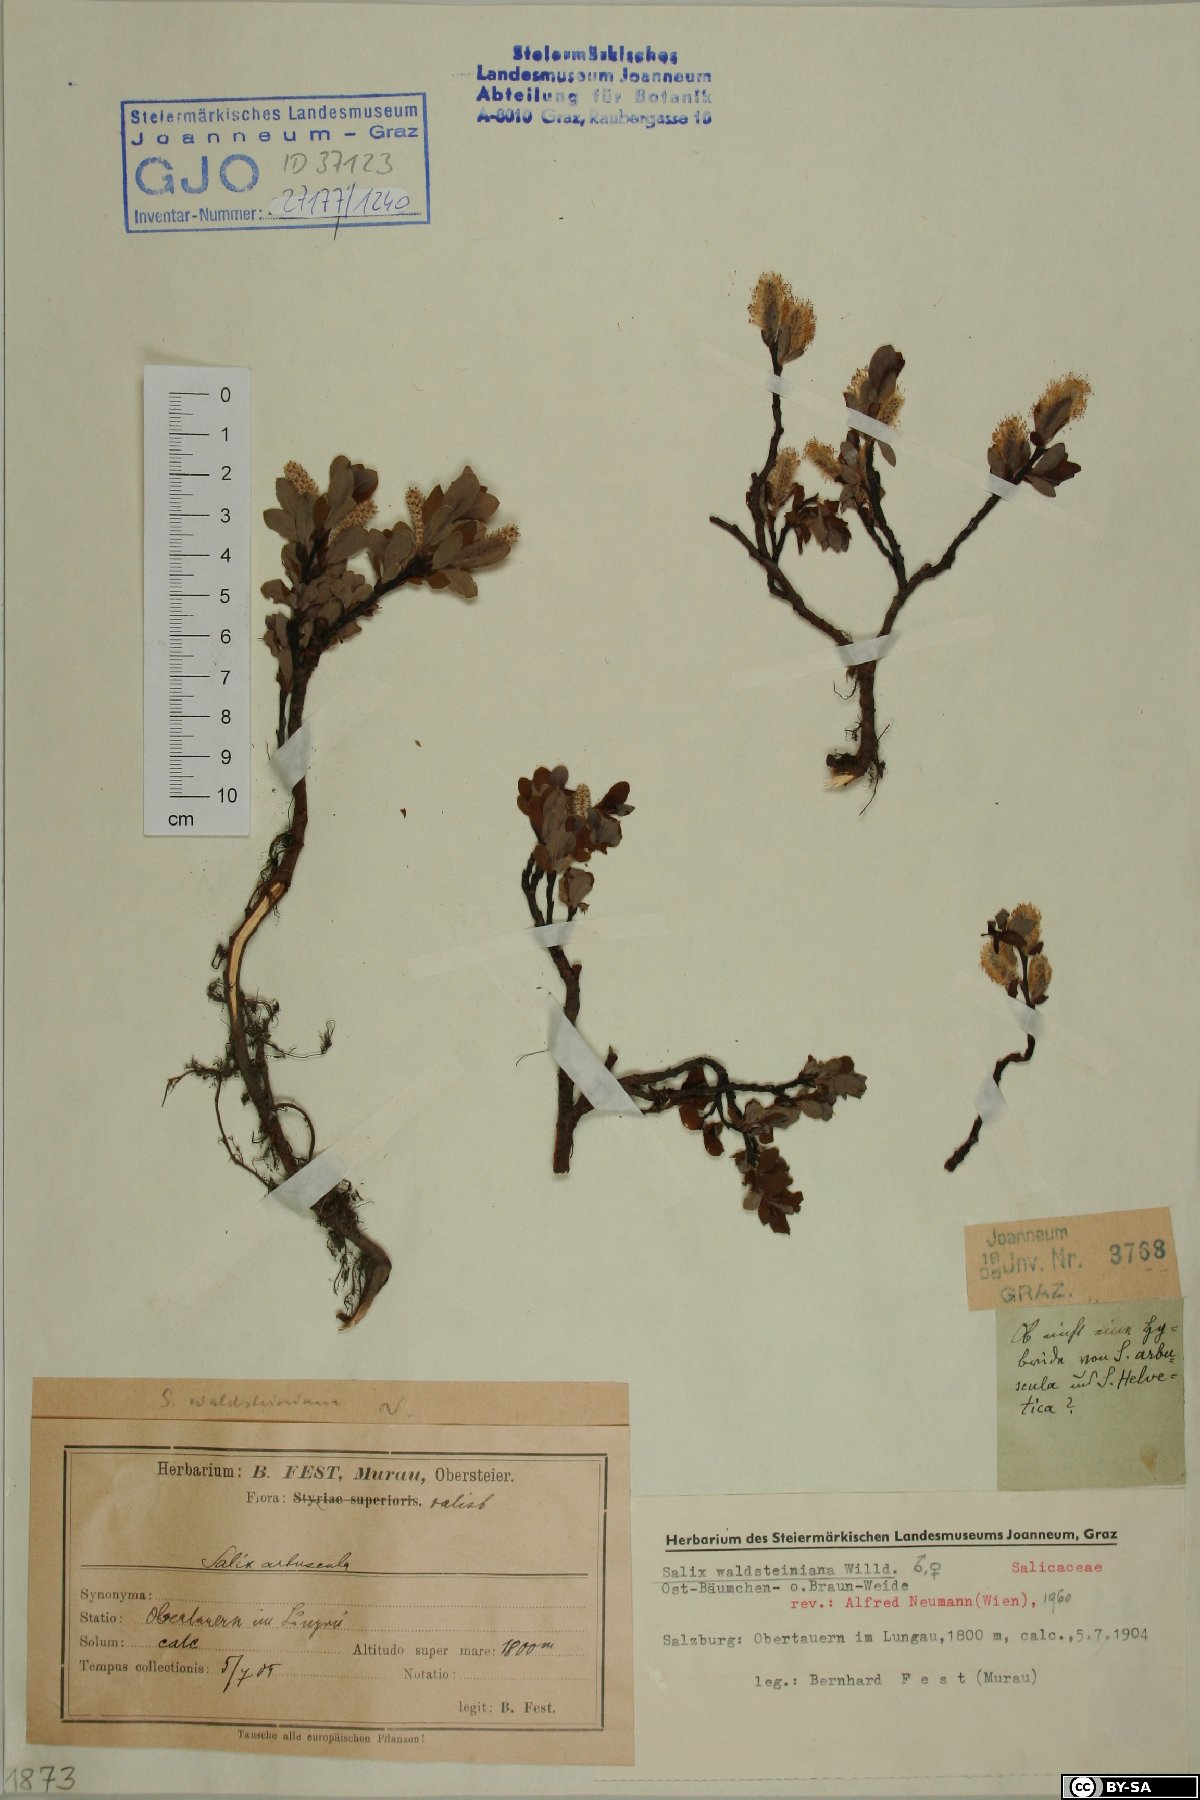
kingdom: Plantae
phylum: Tracheophyta
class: Magnoliopsida
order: Malpighiales
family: Salicaceae
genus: Salix
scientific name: Salix waldsteiniana
